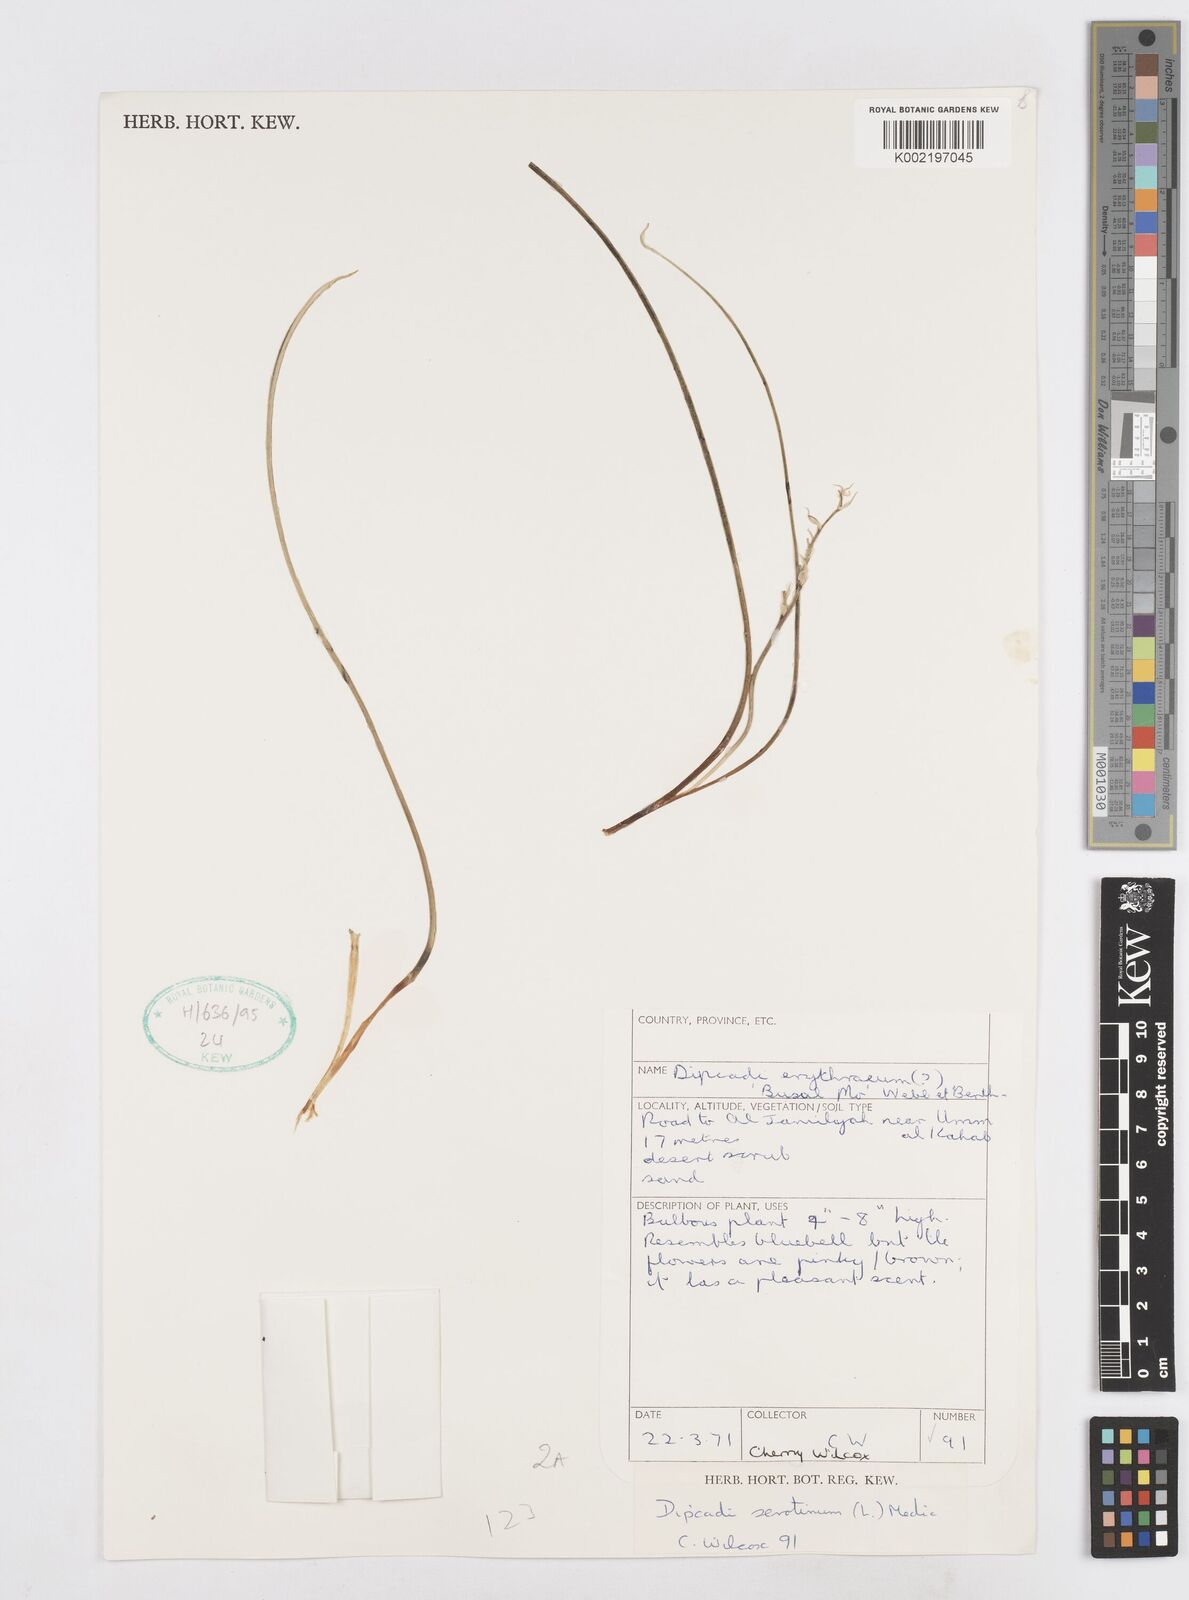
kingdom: Plantae
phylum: Tracheophyta
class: Liliopsida
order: Asparagales
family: Asparagaceae
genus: Dipcadi
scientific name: Dipcadi serotinum
